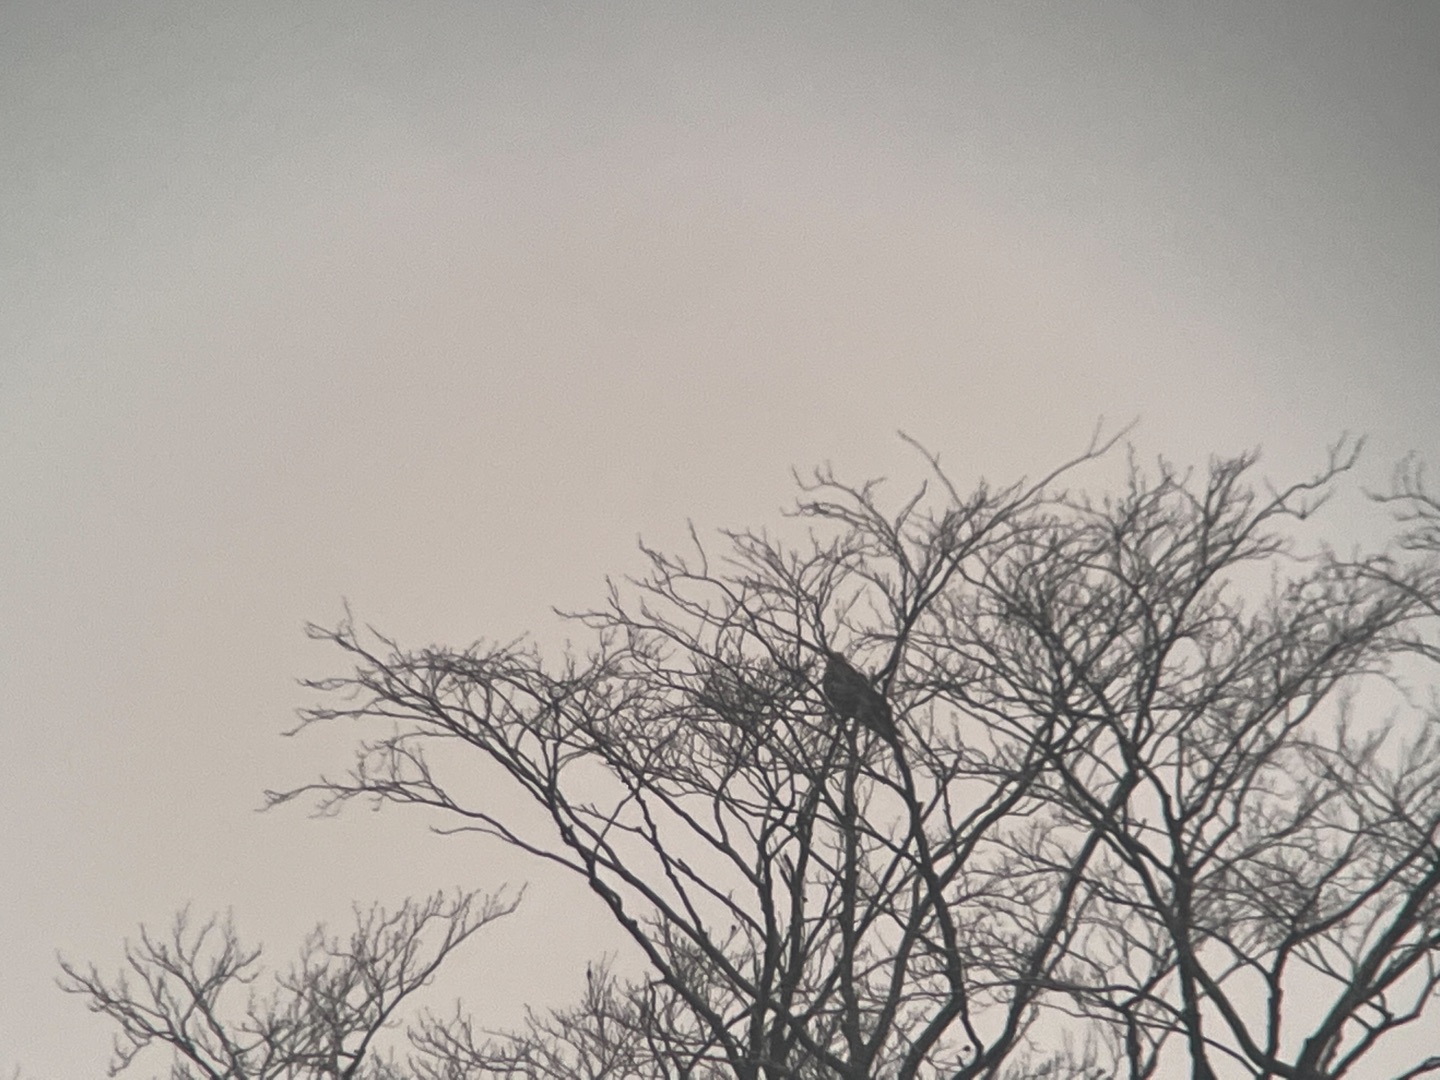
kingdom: Animalia
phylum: Chordata
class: Aves
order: Accipitriformes
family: Accipitridae
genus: Milvus
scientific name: Milvus migrans
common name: Sort glente
